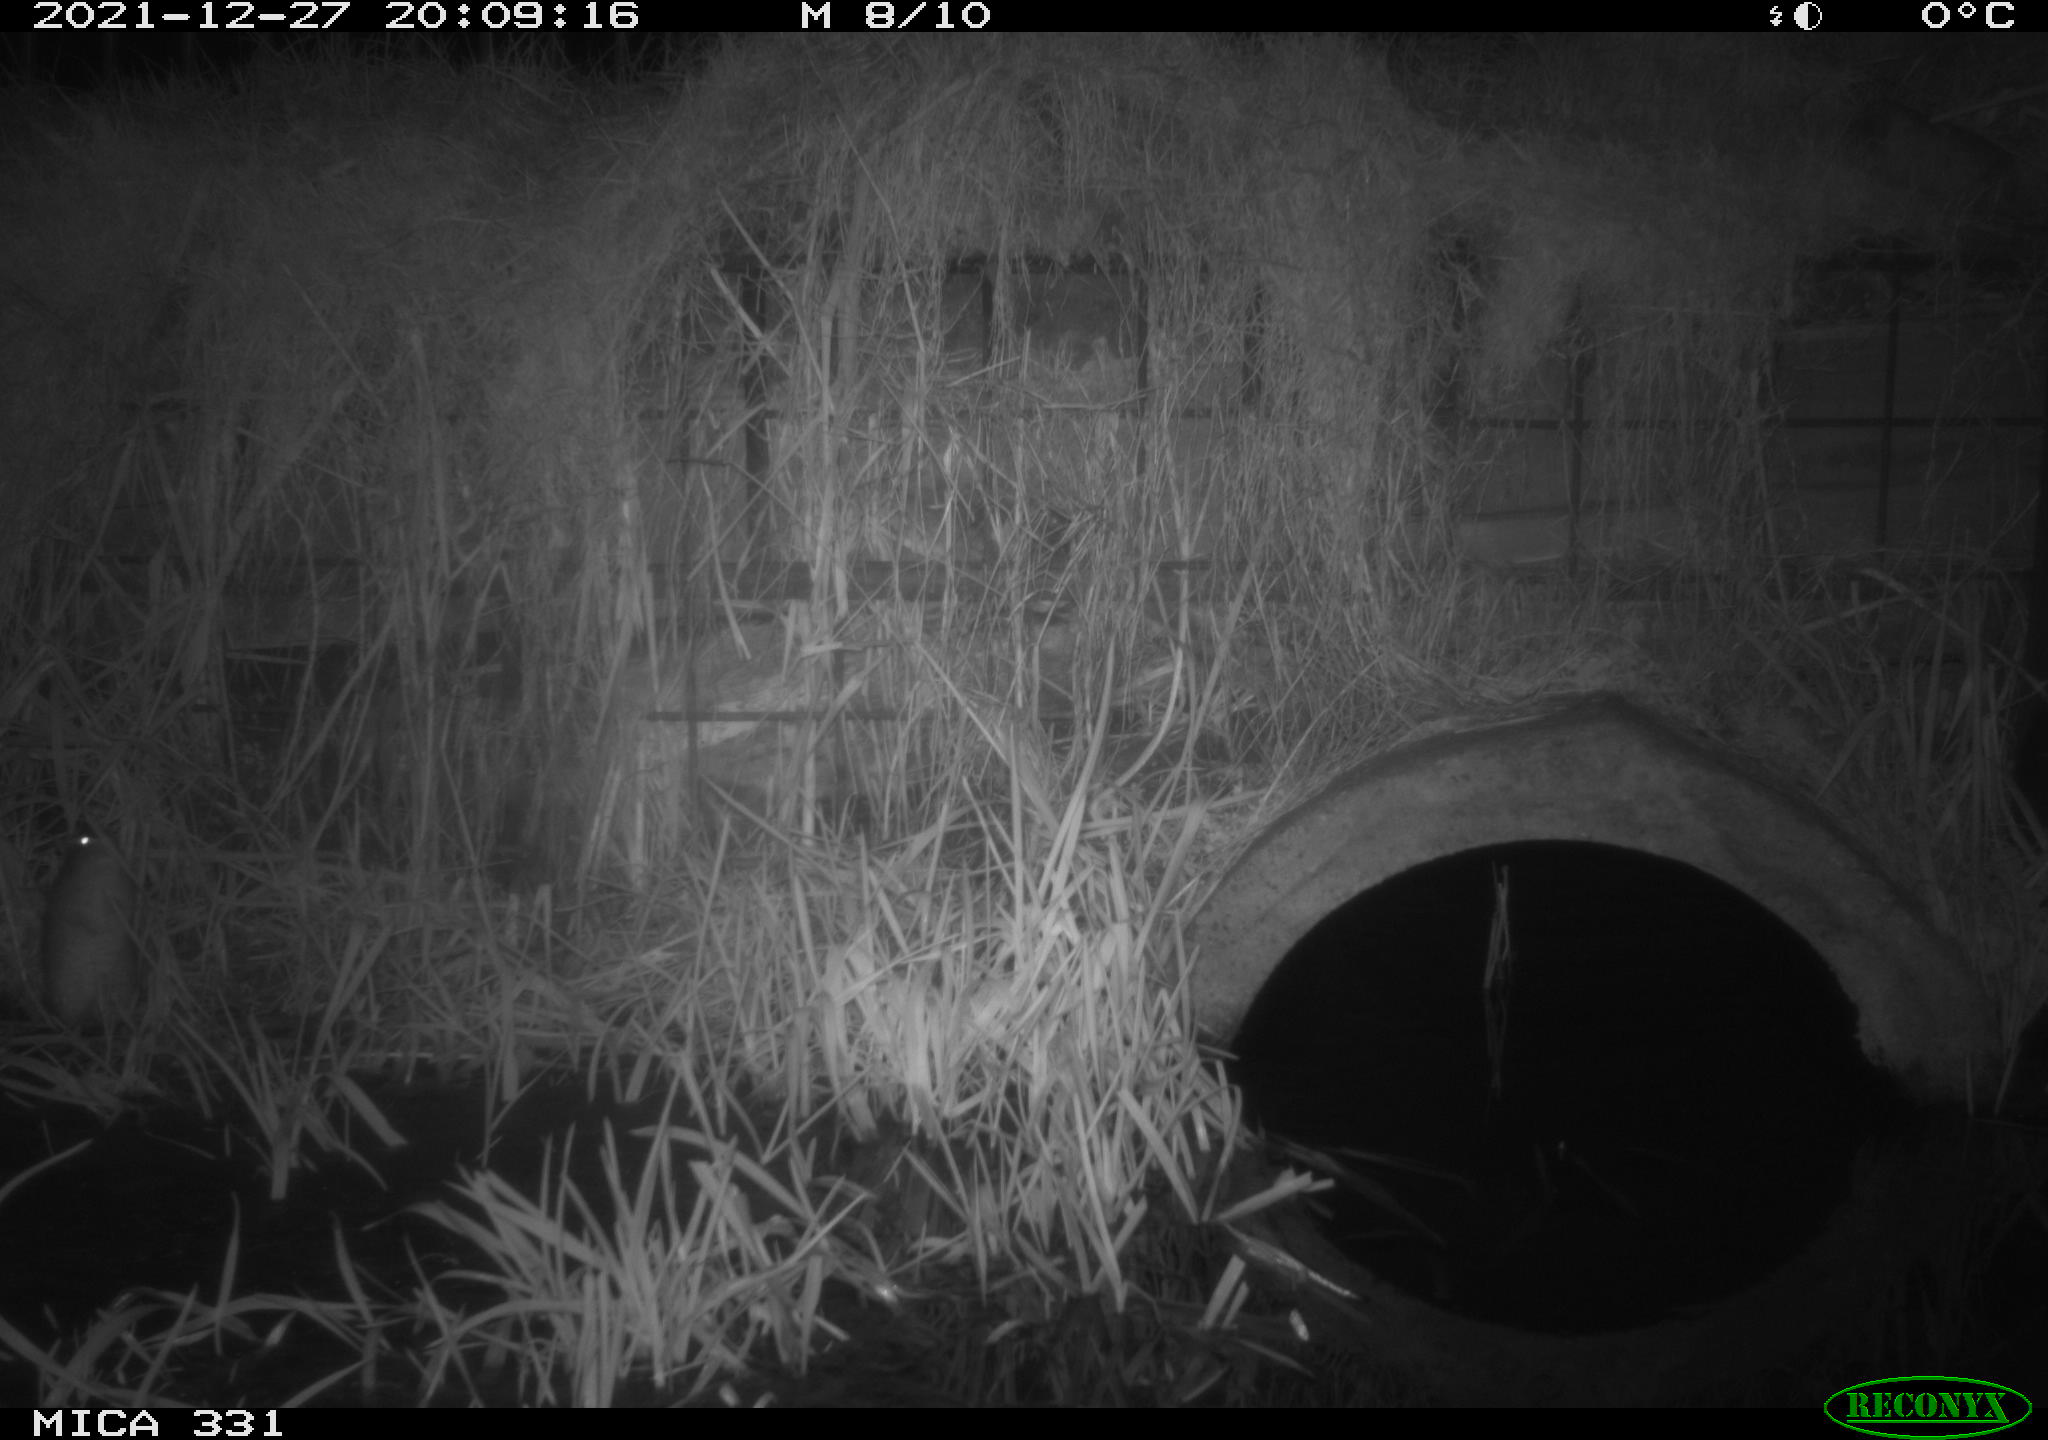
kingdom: Animalia
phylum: Chordata
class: Mammalia
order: Rodentia
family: Muridae
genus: Rattus
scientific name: Rattus norvegicus
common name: Brown rat
